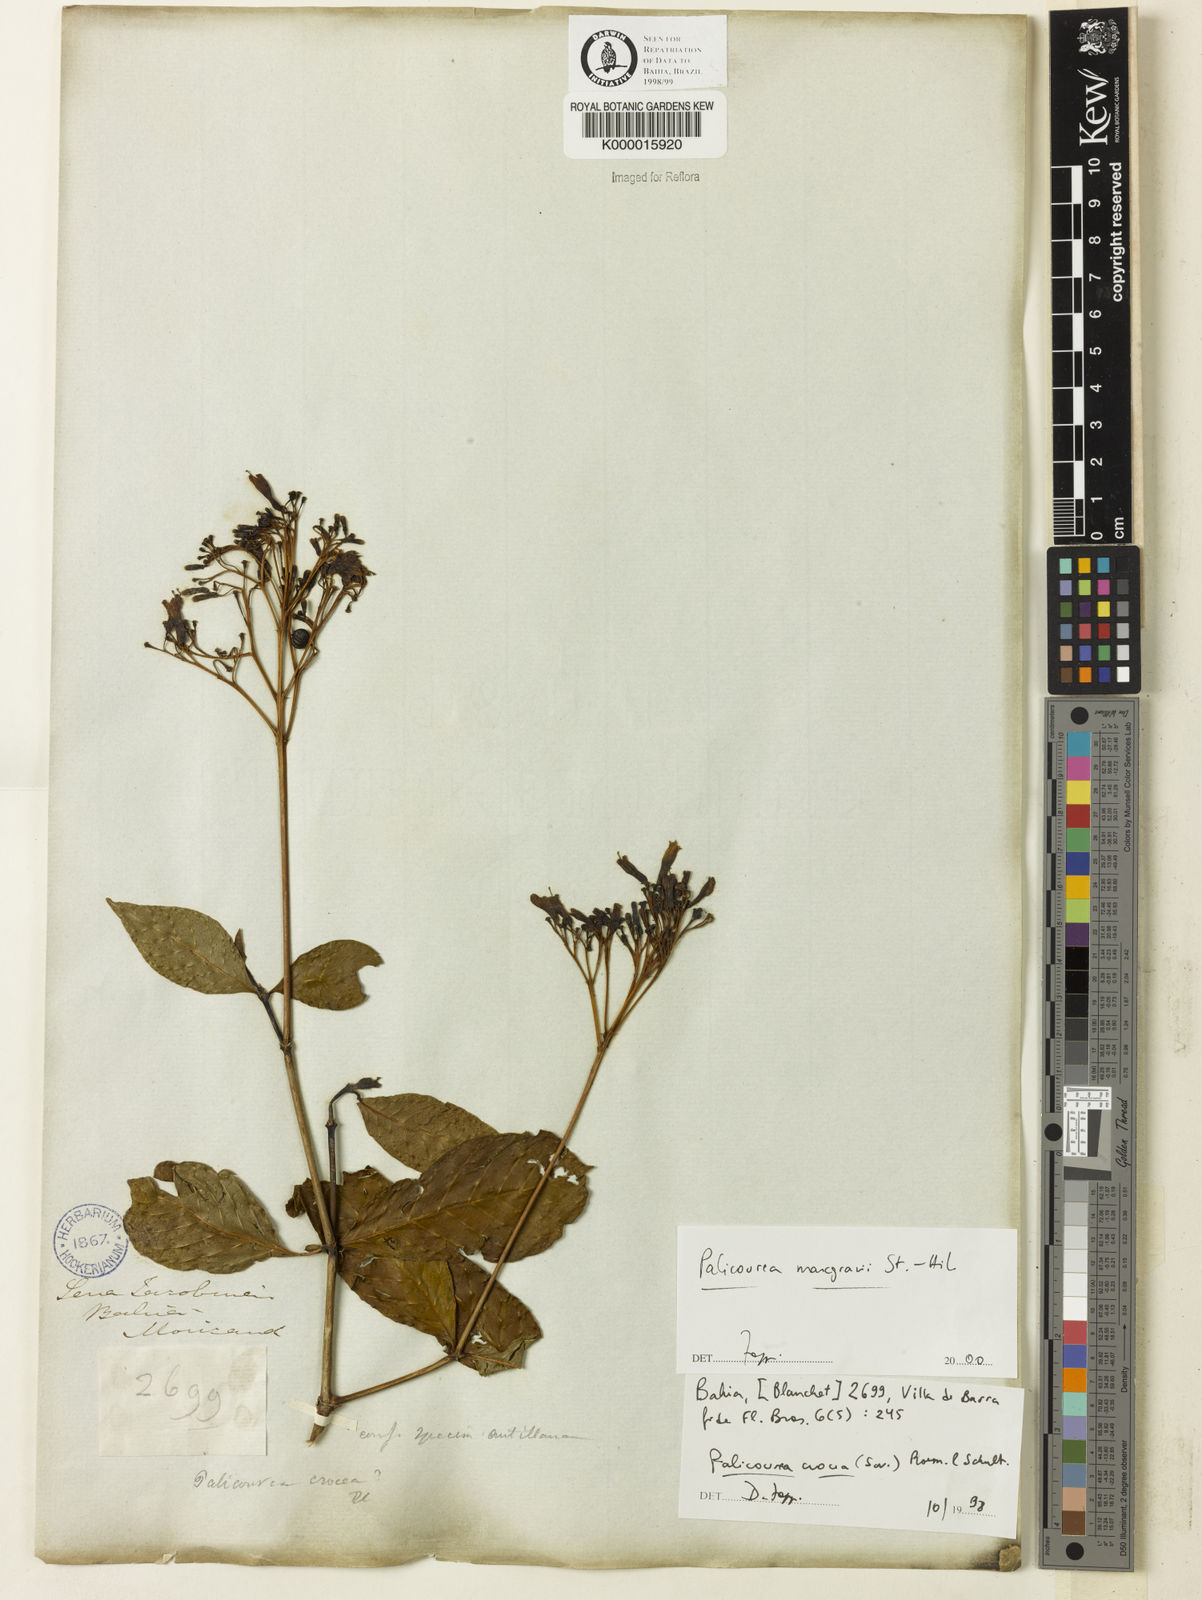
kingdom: Plantae
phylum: Tracheophyta
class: Magnoliopsida
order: Gentianales
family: Rubiaceae
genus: Palicourea
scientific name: Palicourea marcgravii
